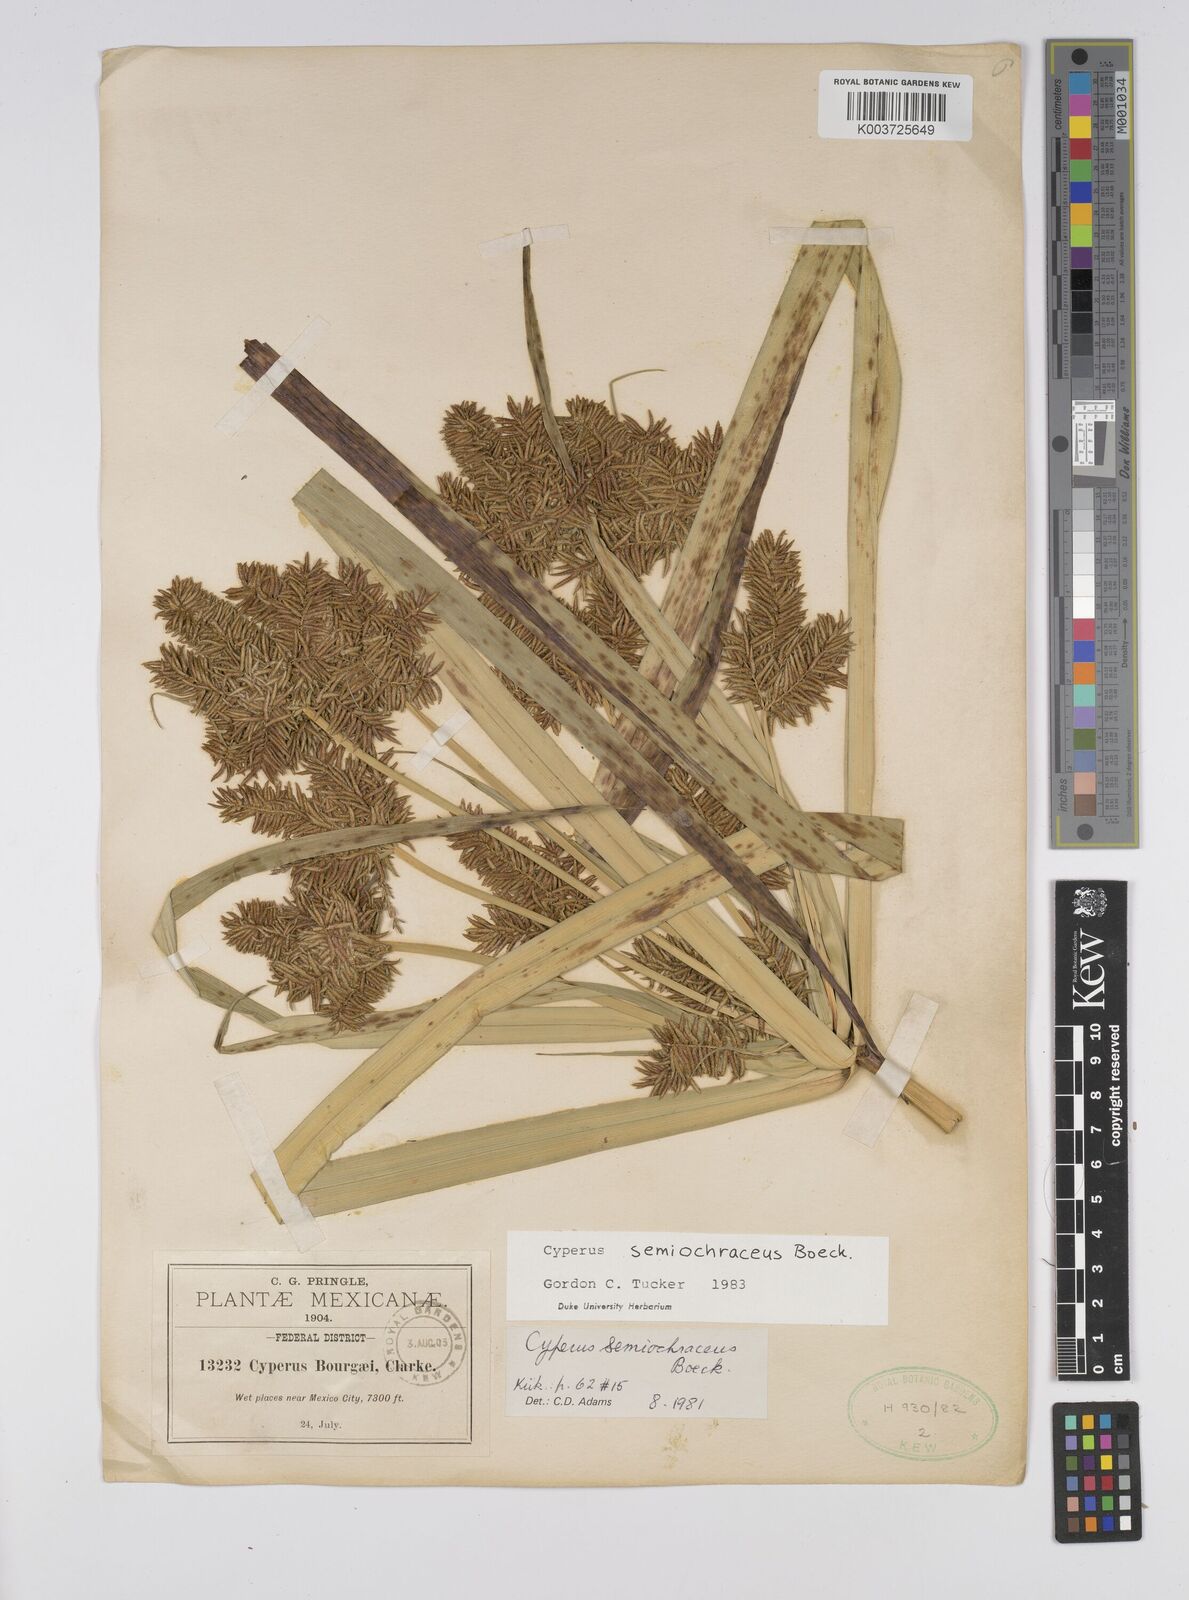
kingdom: Plantae
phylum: Tracheophyta
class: Liliopsida
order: Poales
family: Cyperaceae
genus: Cyperus
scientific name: Cyperus semiochraceus
